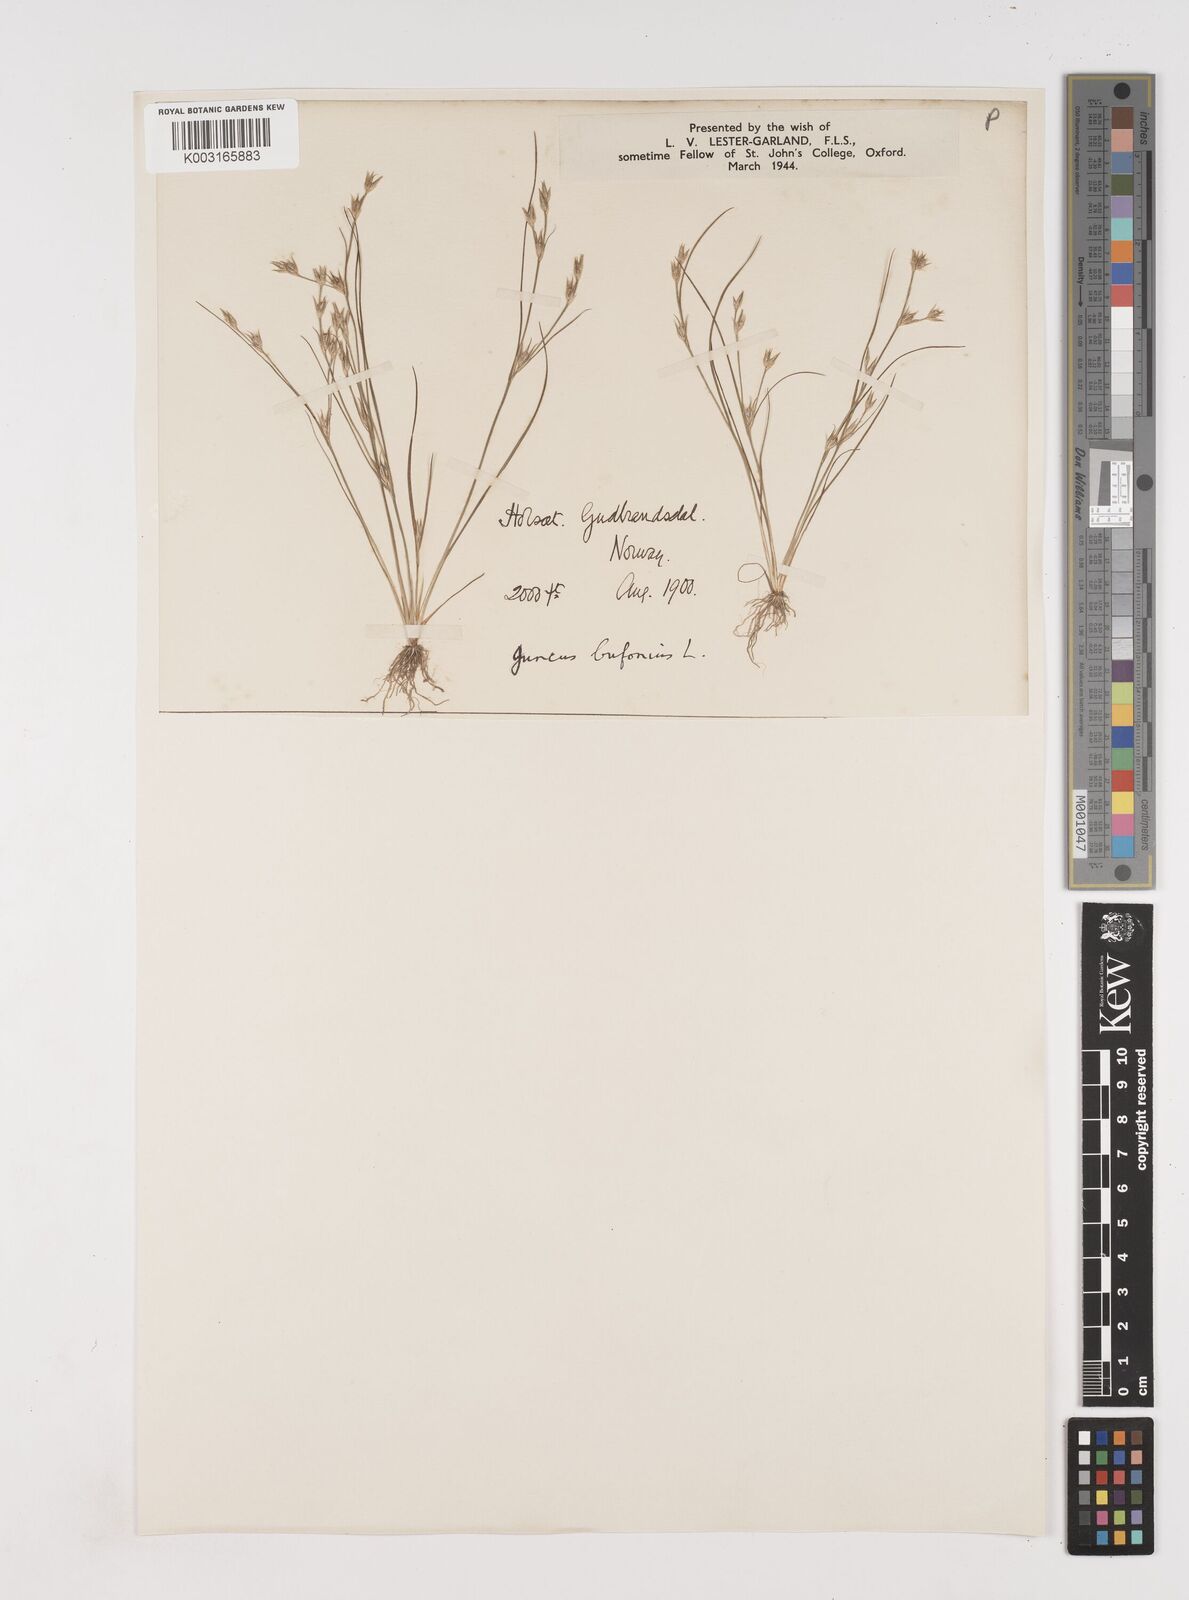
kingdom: Plantae
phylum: Tracheophyta
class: Liliopsida
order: Poales
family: Juncaceae
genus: Juncus
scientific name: Juncus bufonius
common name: Toad rush
